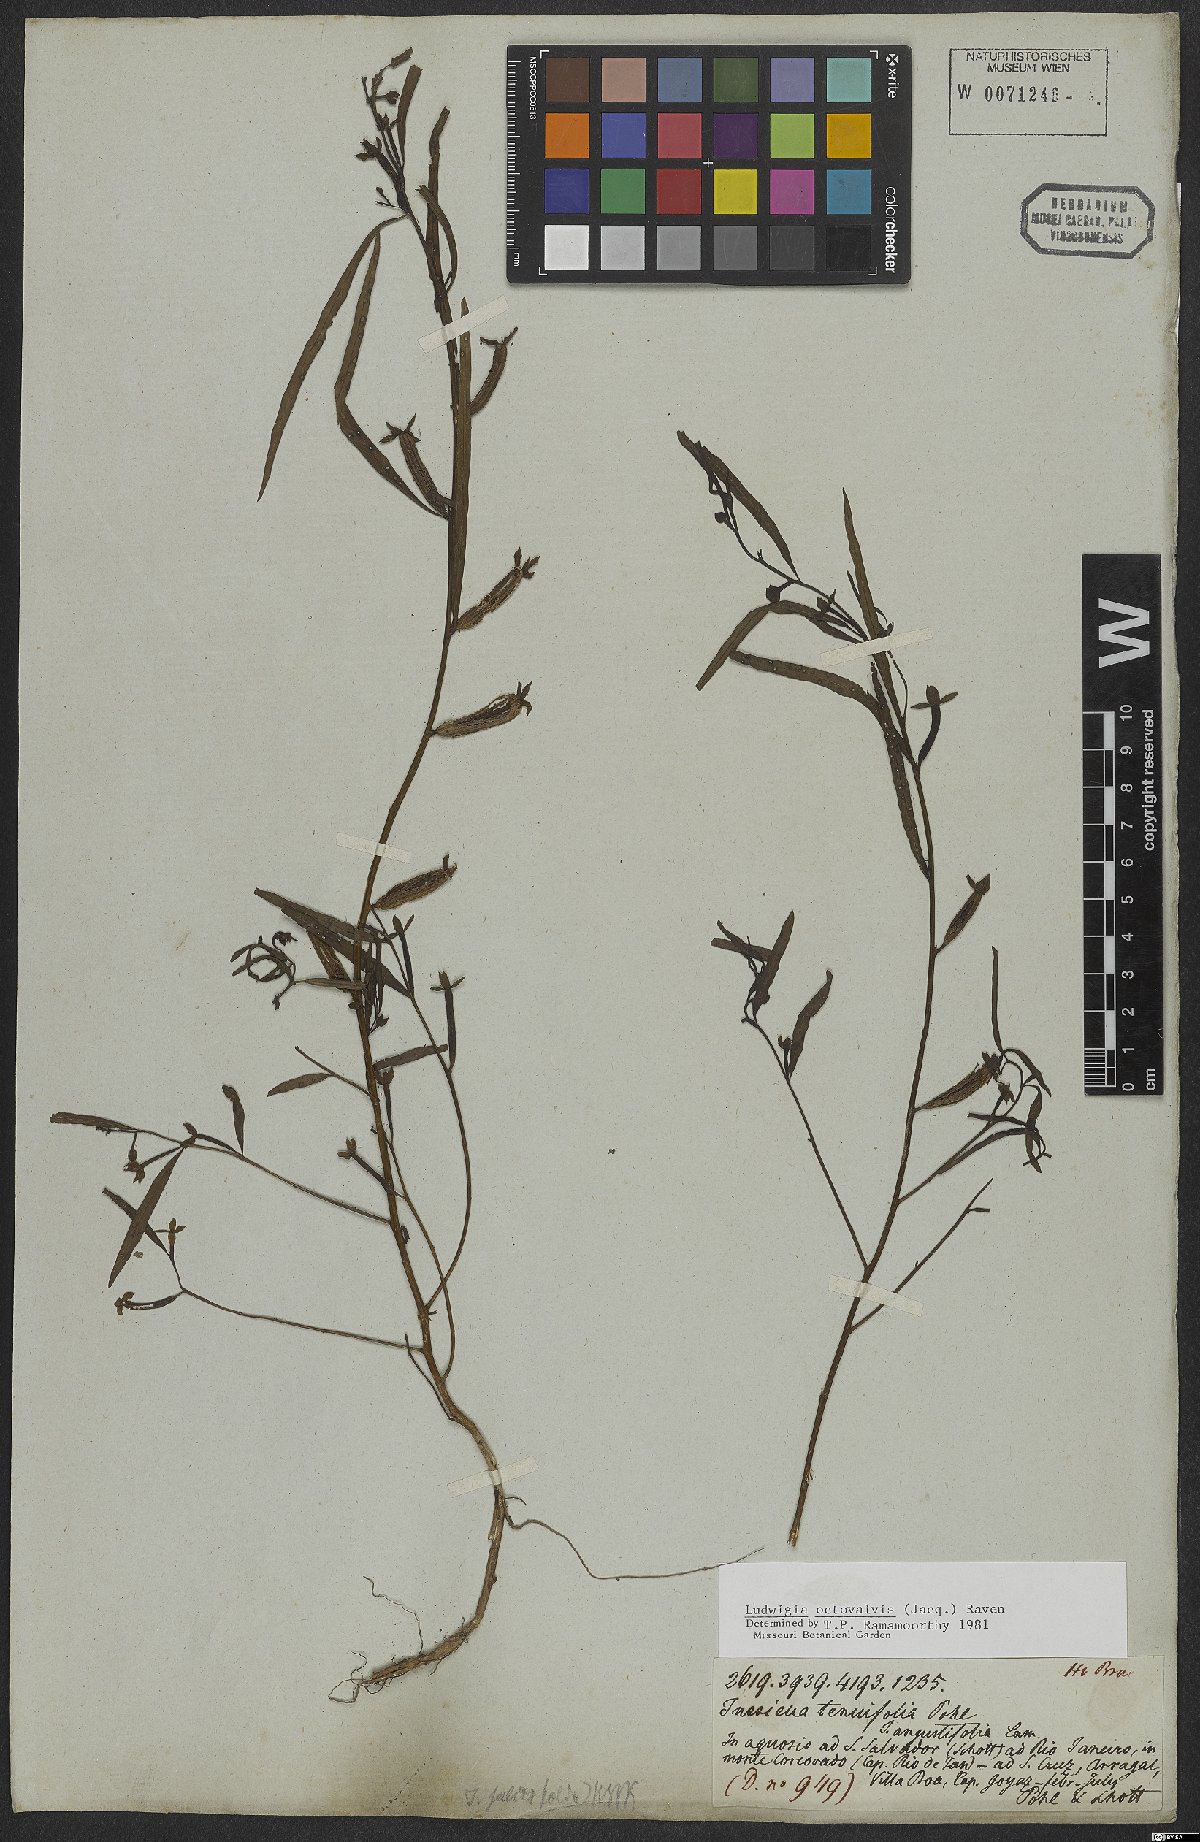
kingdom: Plantae
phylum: Tracheophyta
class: Magnoliopsida
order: Myrtales
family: Onagraceae
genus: Ludwigia
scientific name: Ludwigia octovalvis
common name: Water-primrose
